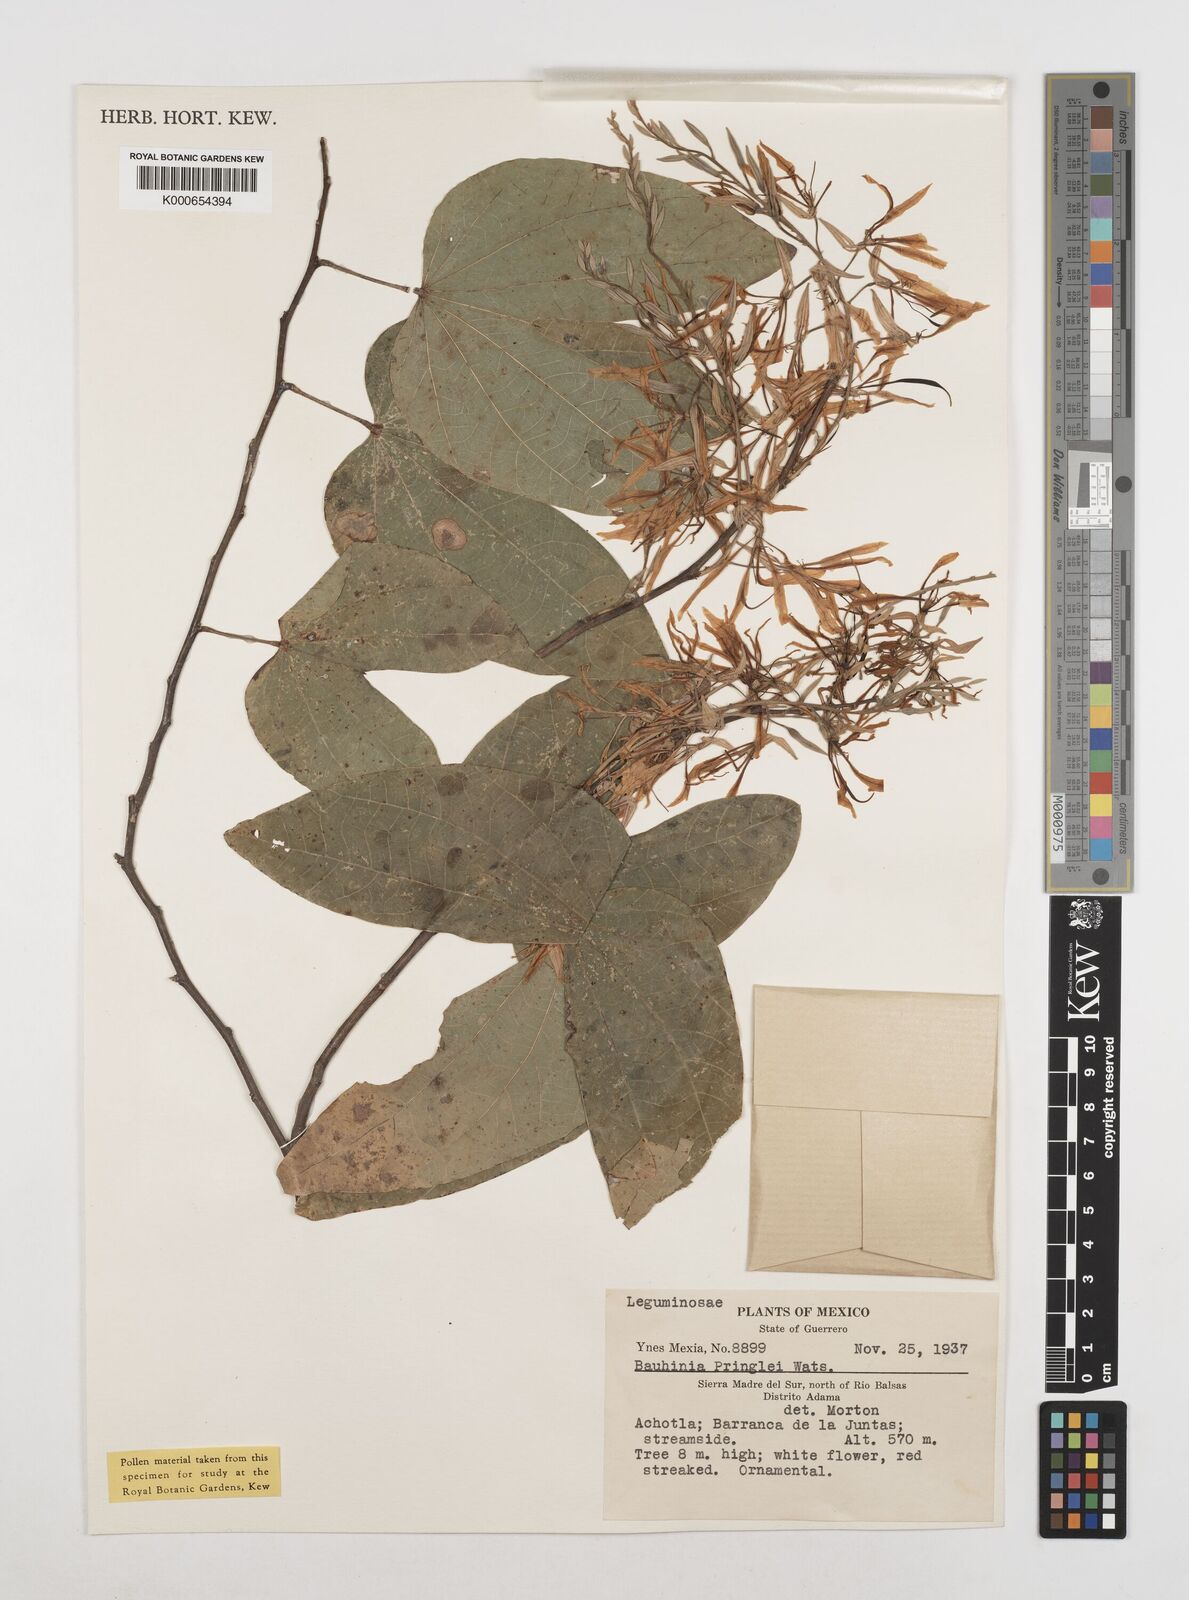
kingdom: Plantae
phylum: Tracheophyta
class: Magnoliopsida
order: Fabales
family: Fabaceae
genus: Bauhinia
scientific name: Bauhinia pringlei
